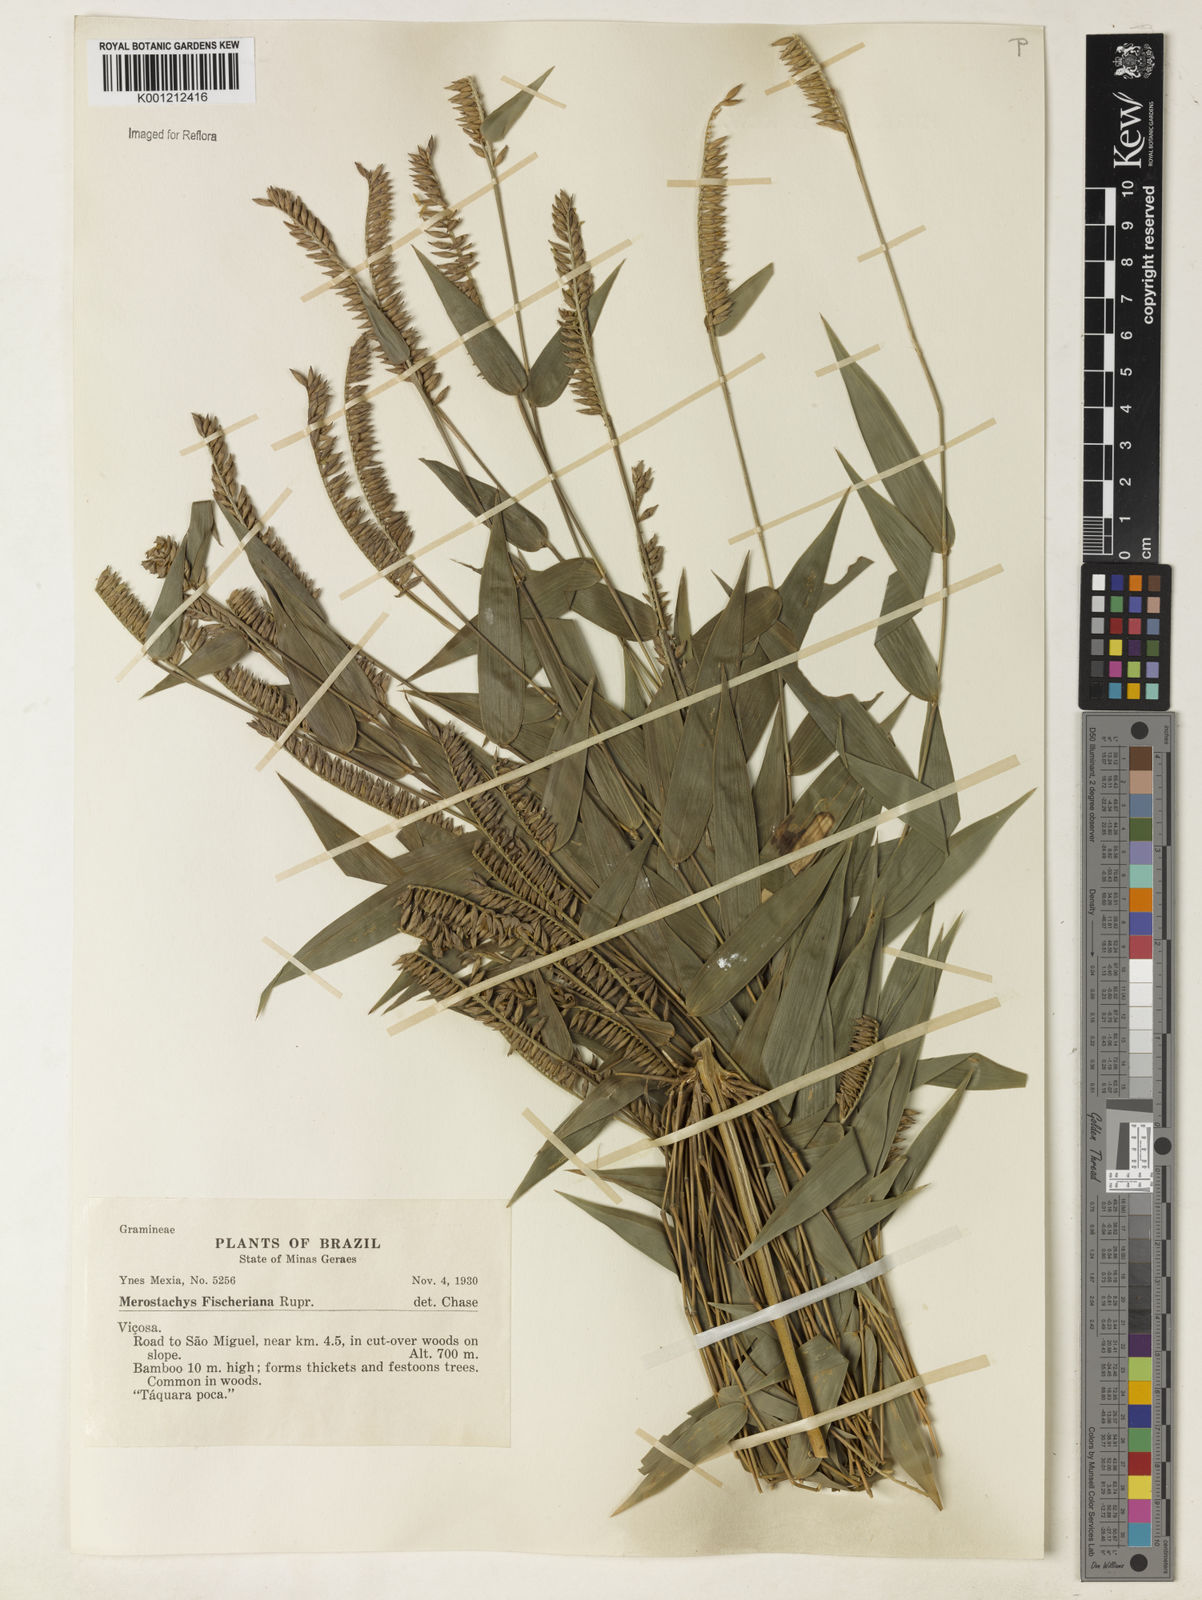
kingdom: Plantae
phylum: Tracheophyta
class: Liliopsida
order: Poales
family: Poaceae
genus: Merostachys
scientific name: Merostachys
